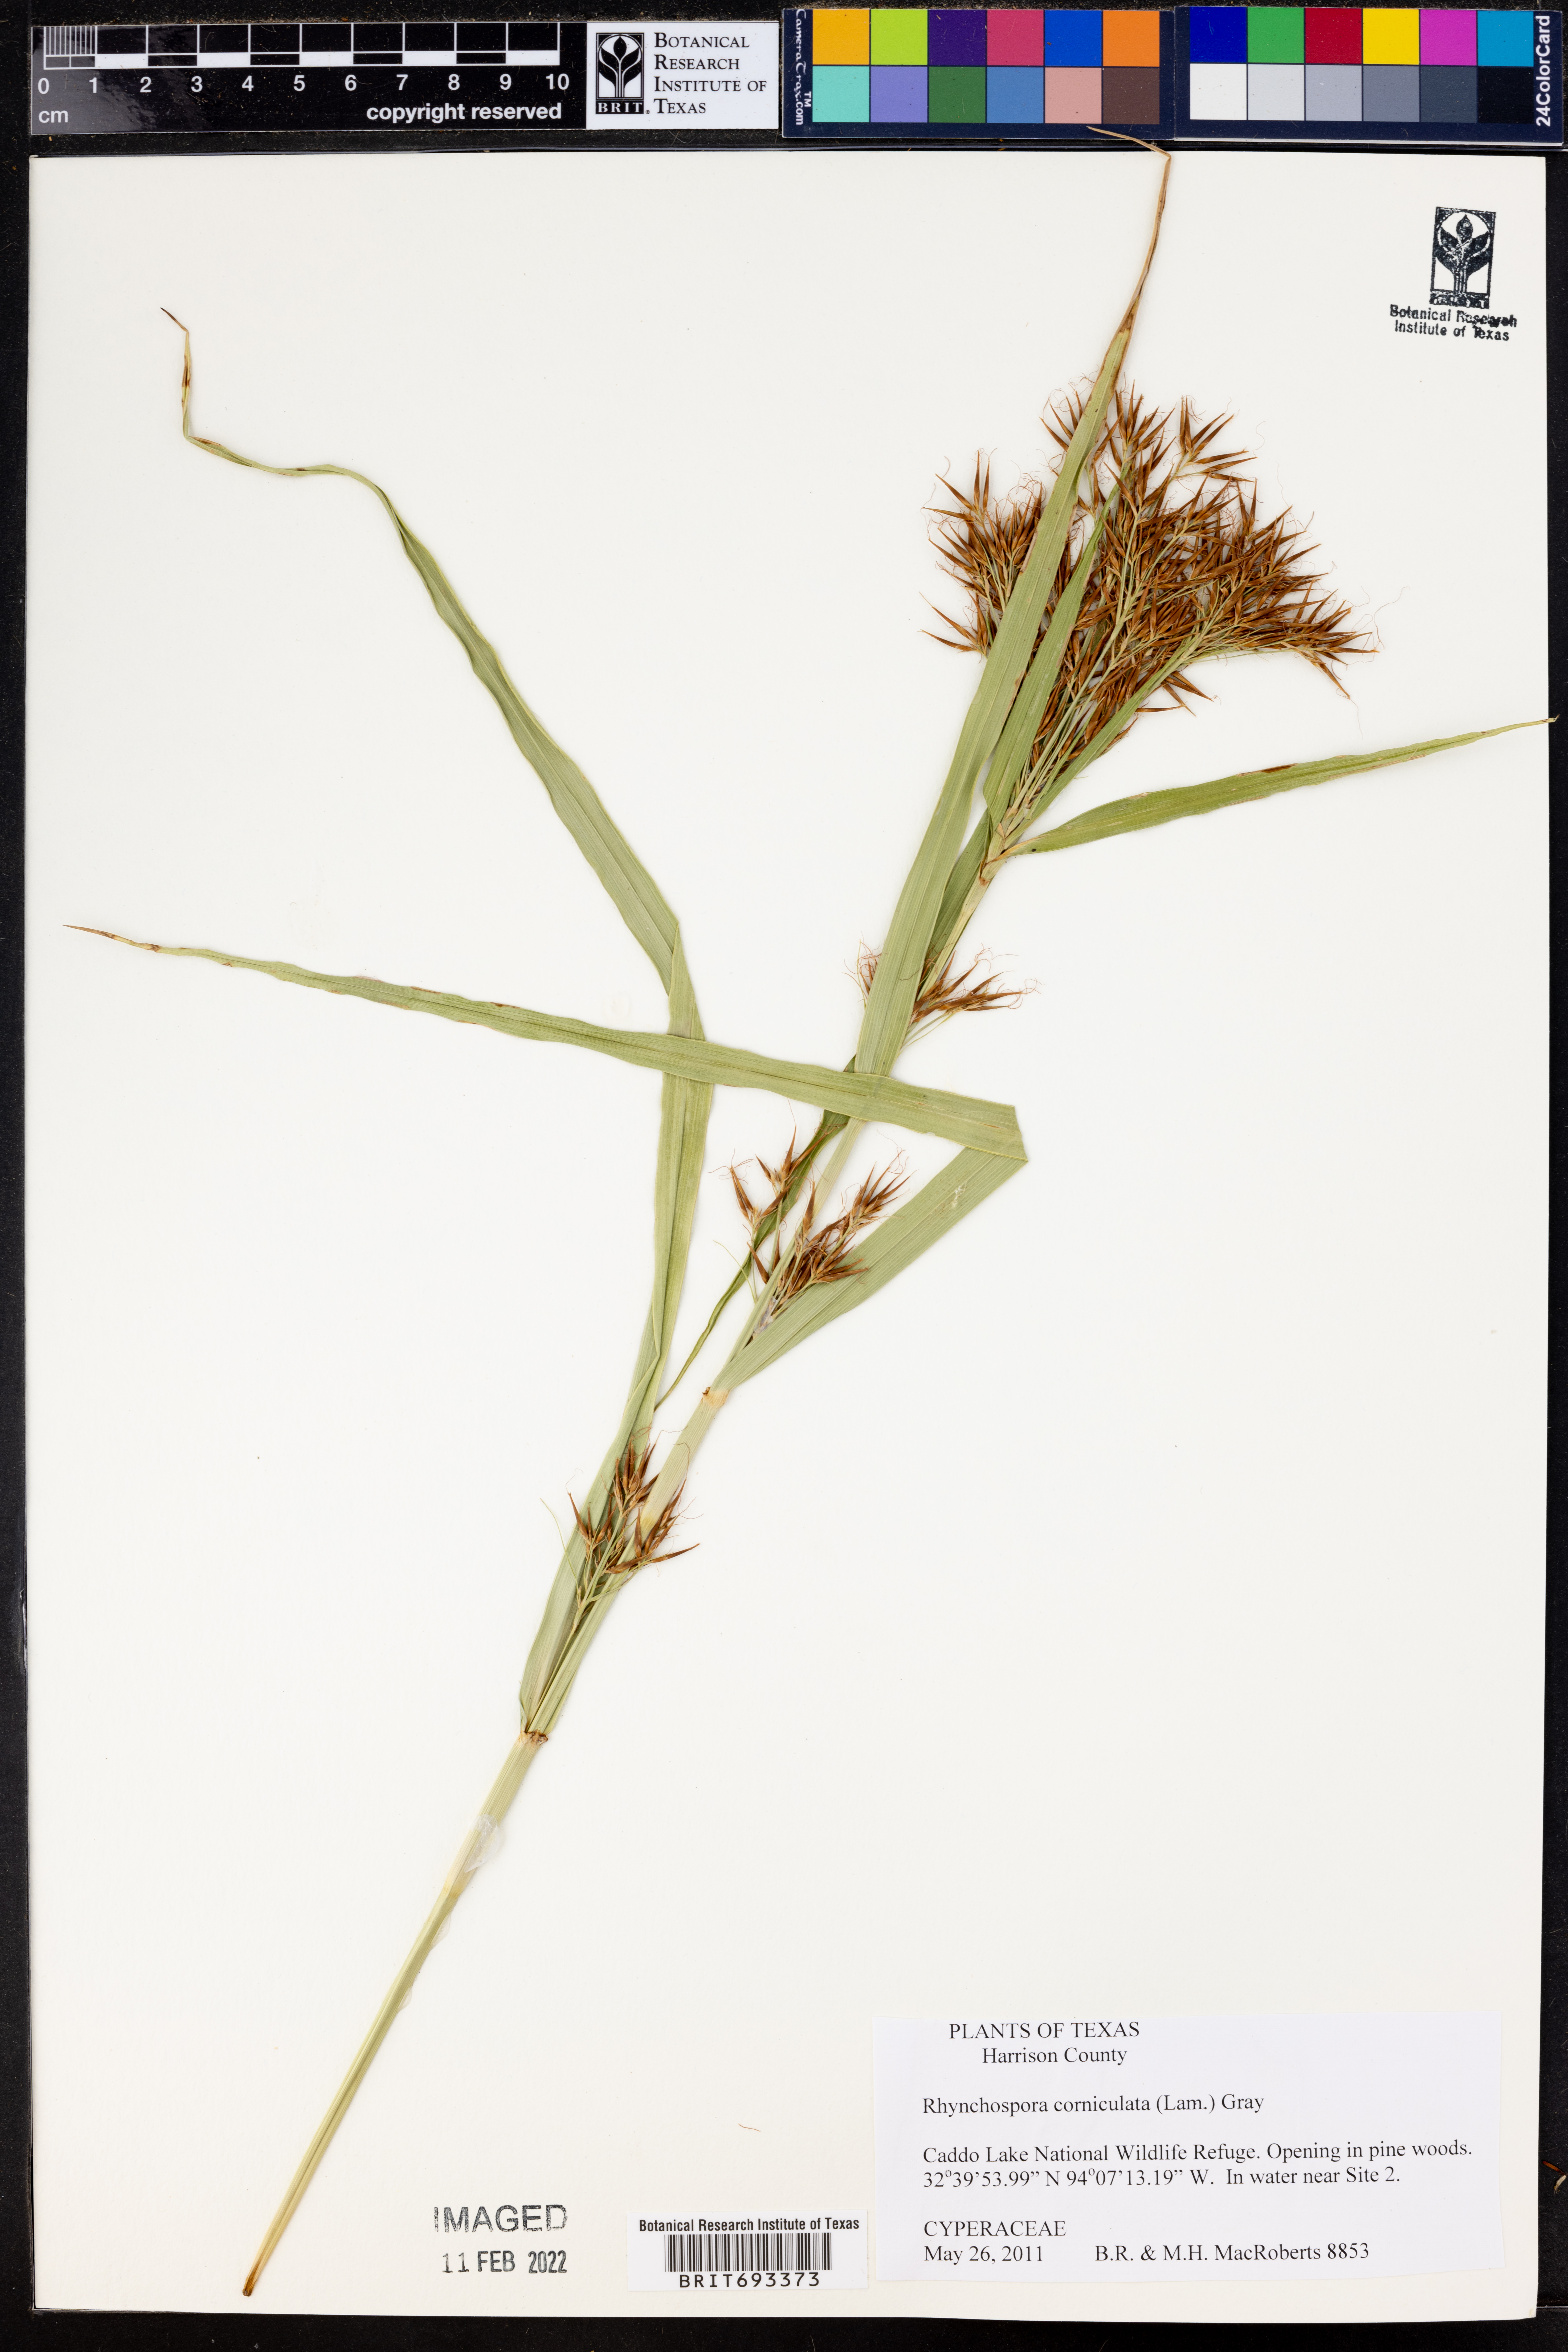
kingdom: Plantae
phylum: Tracheophyta
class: Liliopsida
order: Poales
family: Cyperaceae
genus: Rhynchospora
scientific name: Rhynchospora corniculata
